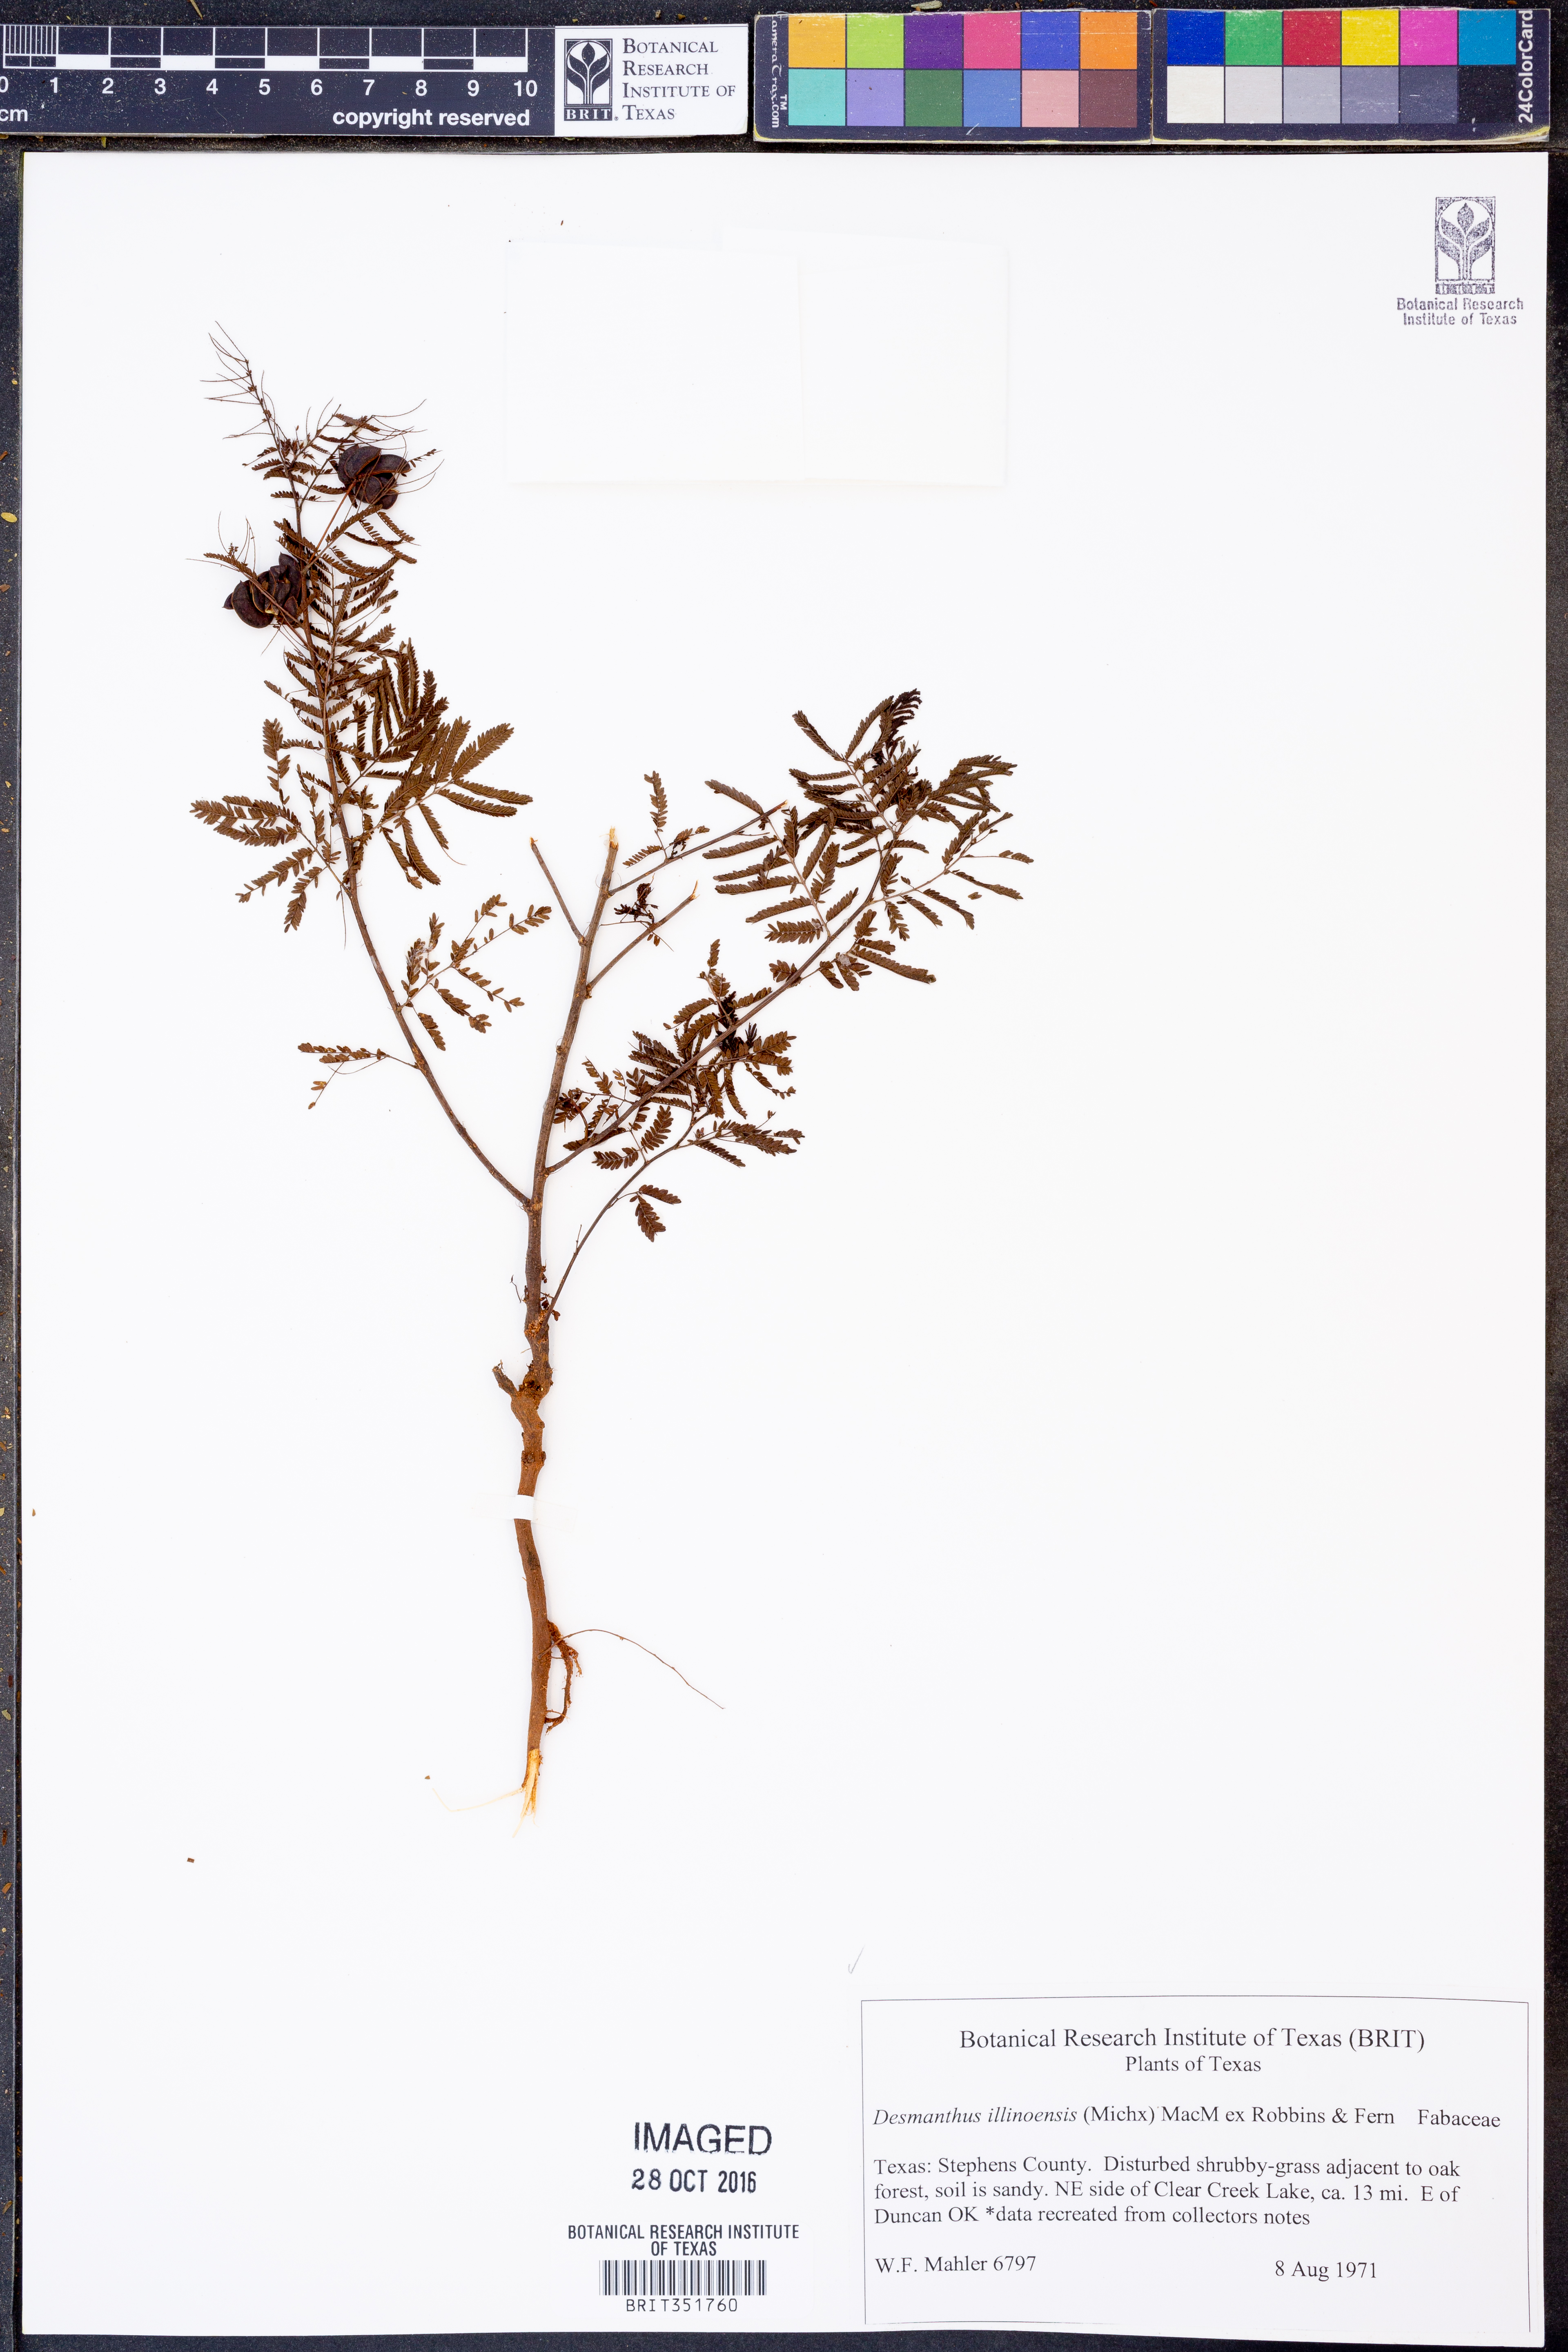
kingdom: Plantae
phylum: Tracheophyta
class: Magnoliopsida
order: Fabales
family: Fabaceae
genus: Desmanthus
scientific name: Desmanthus illinoensis
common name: Illinois bundle-flower
